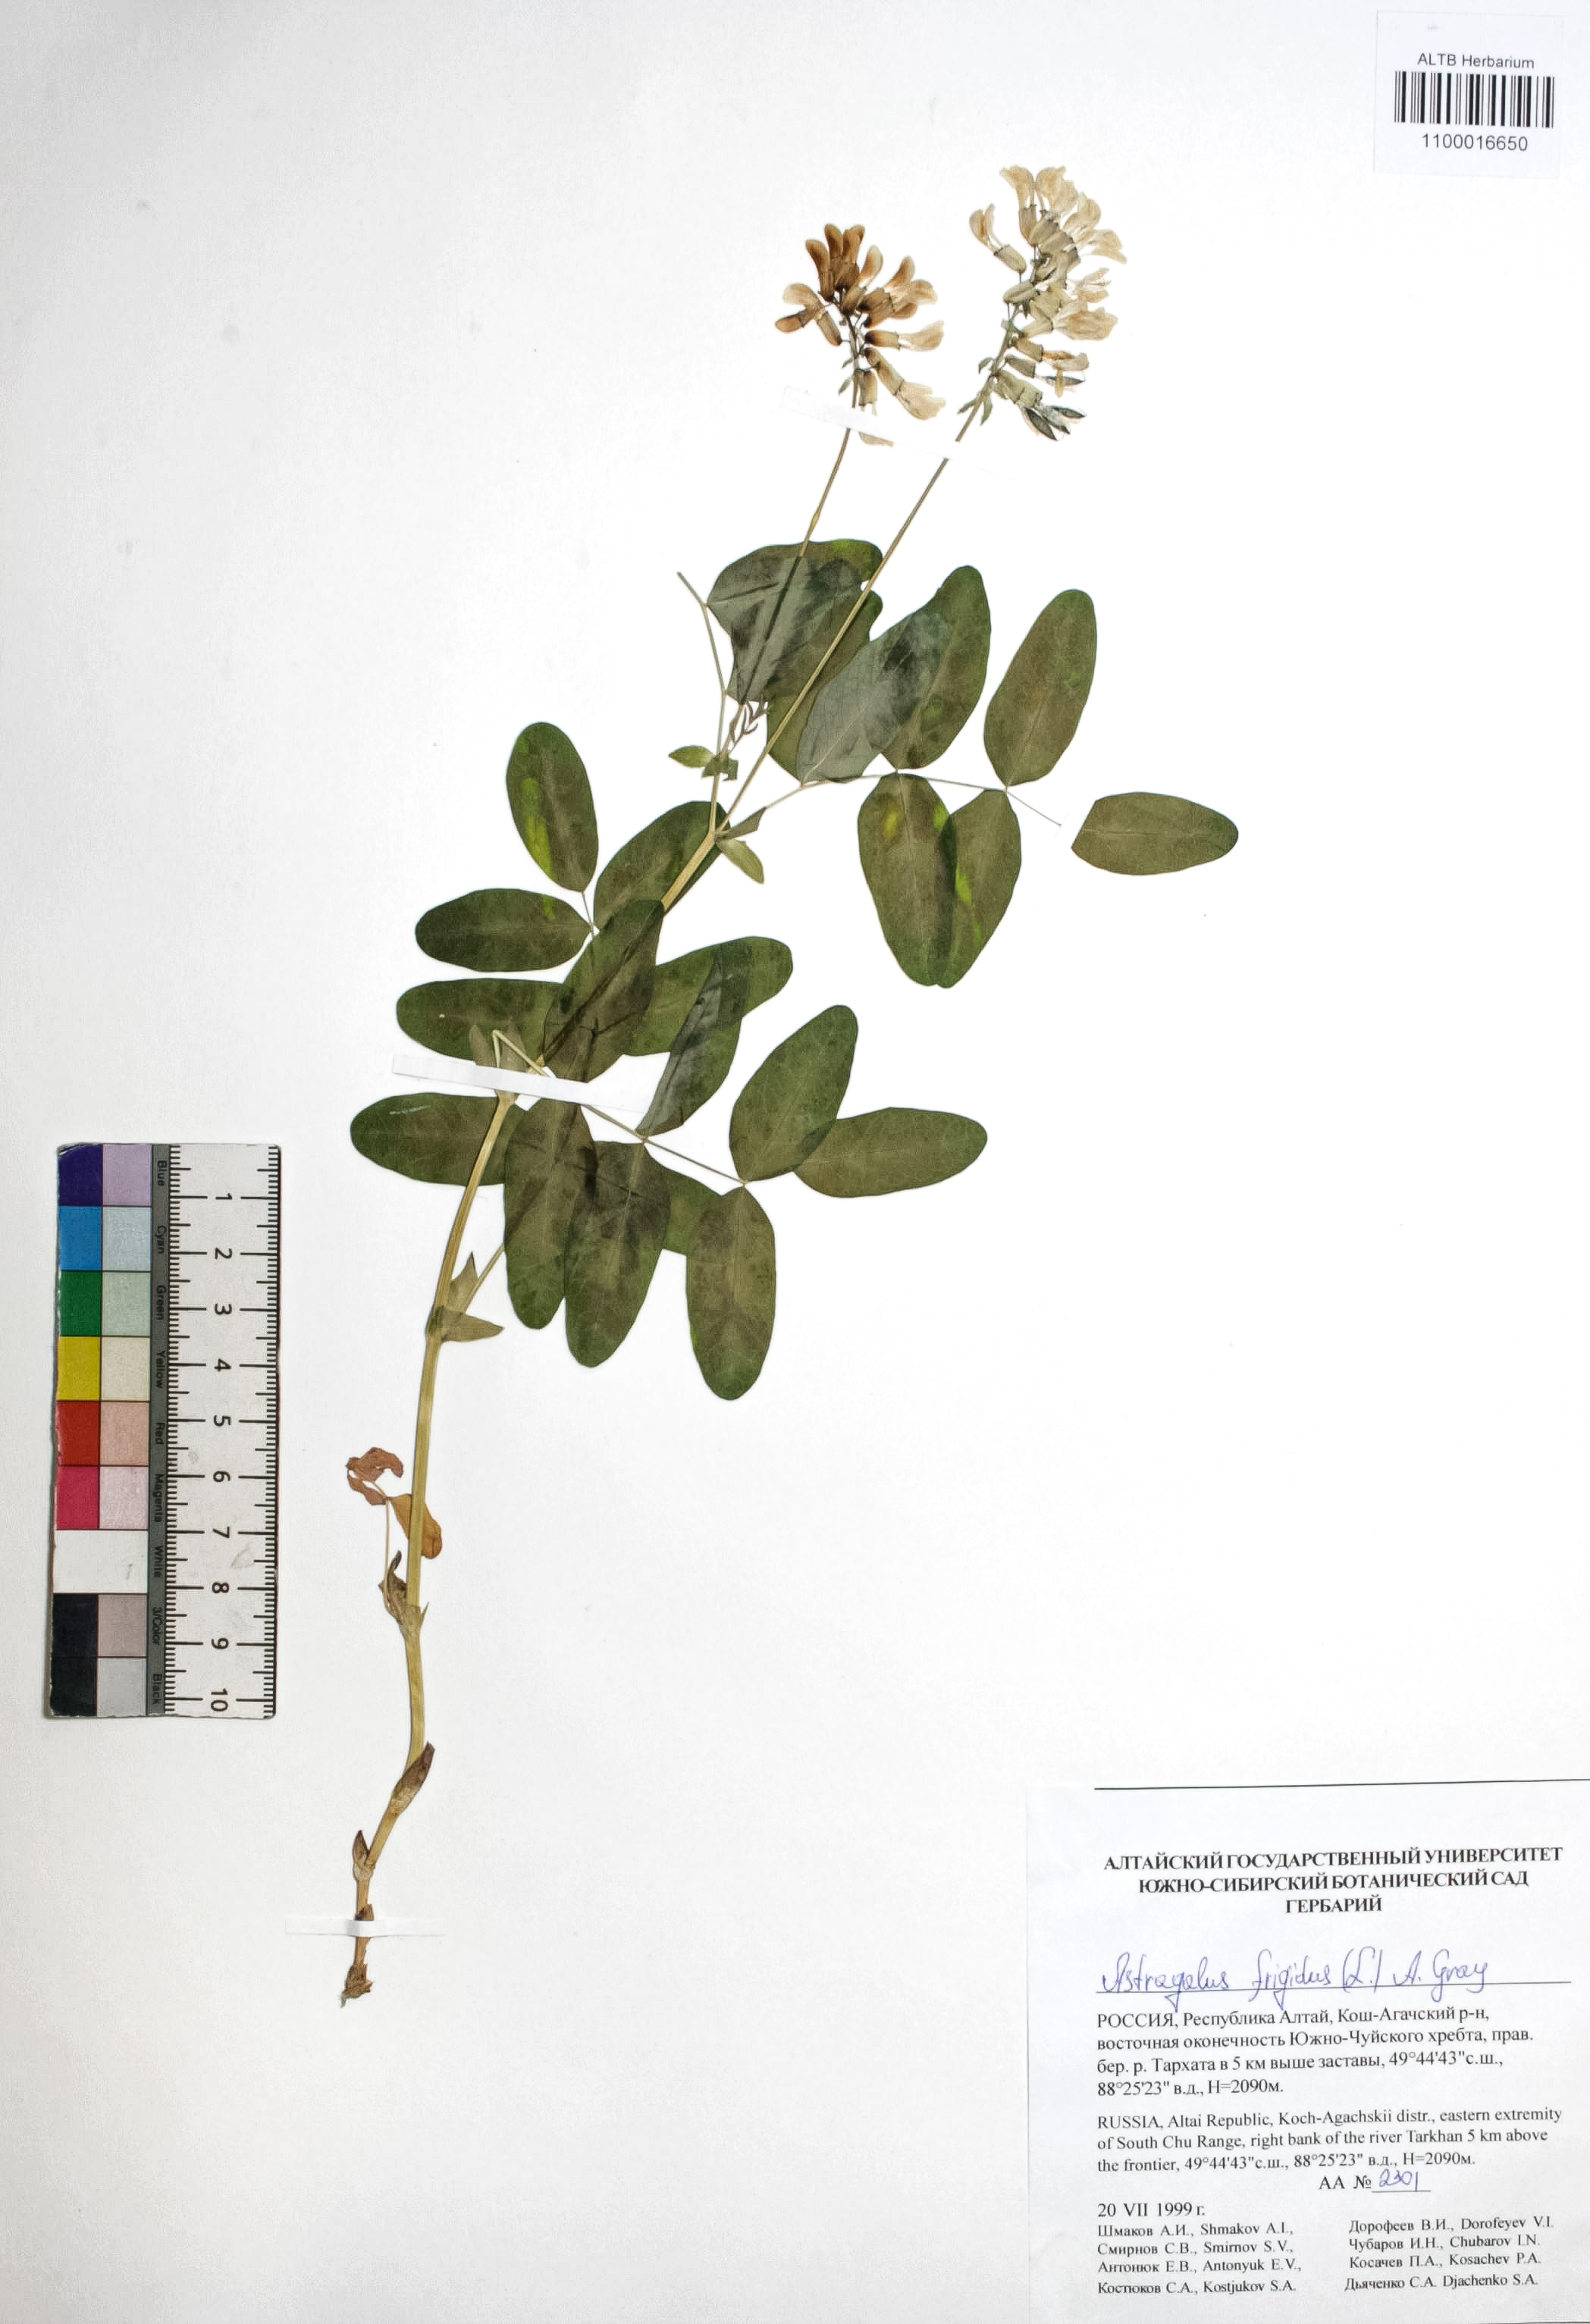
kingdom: Plantae
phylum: Tracheophyta
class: Magnoliopsida
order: Fabales
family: Fabaceae
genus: Astragalus
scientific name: Astragalus frigidus
